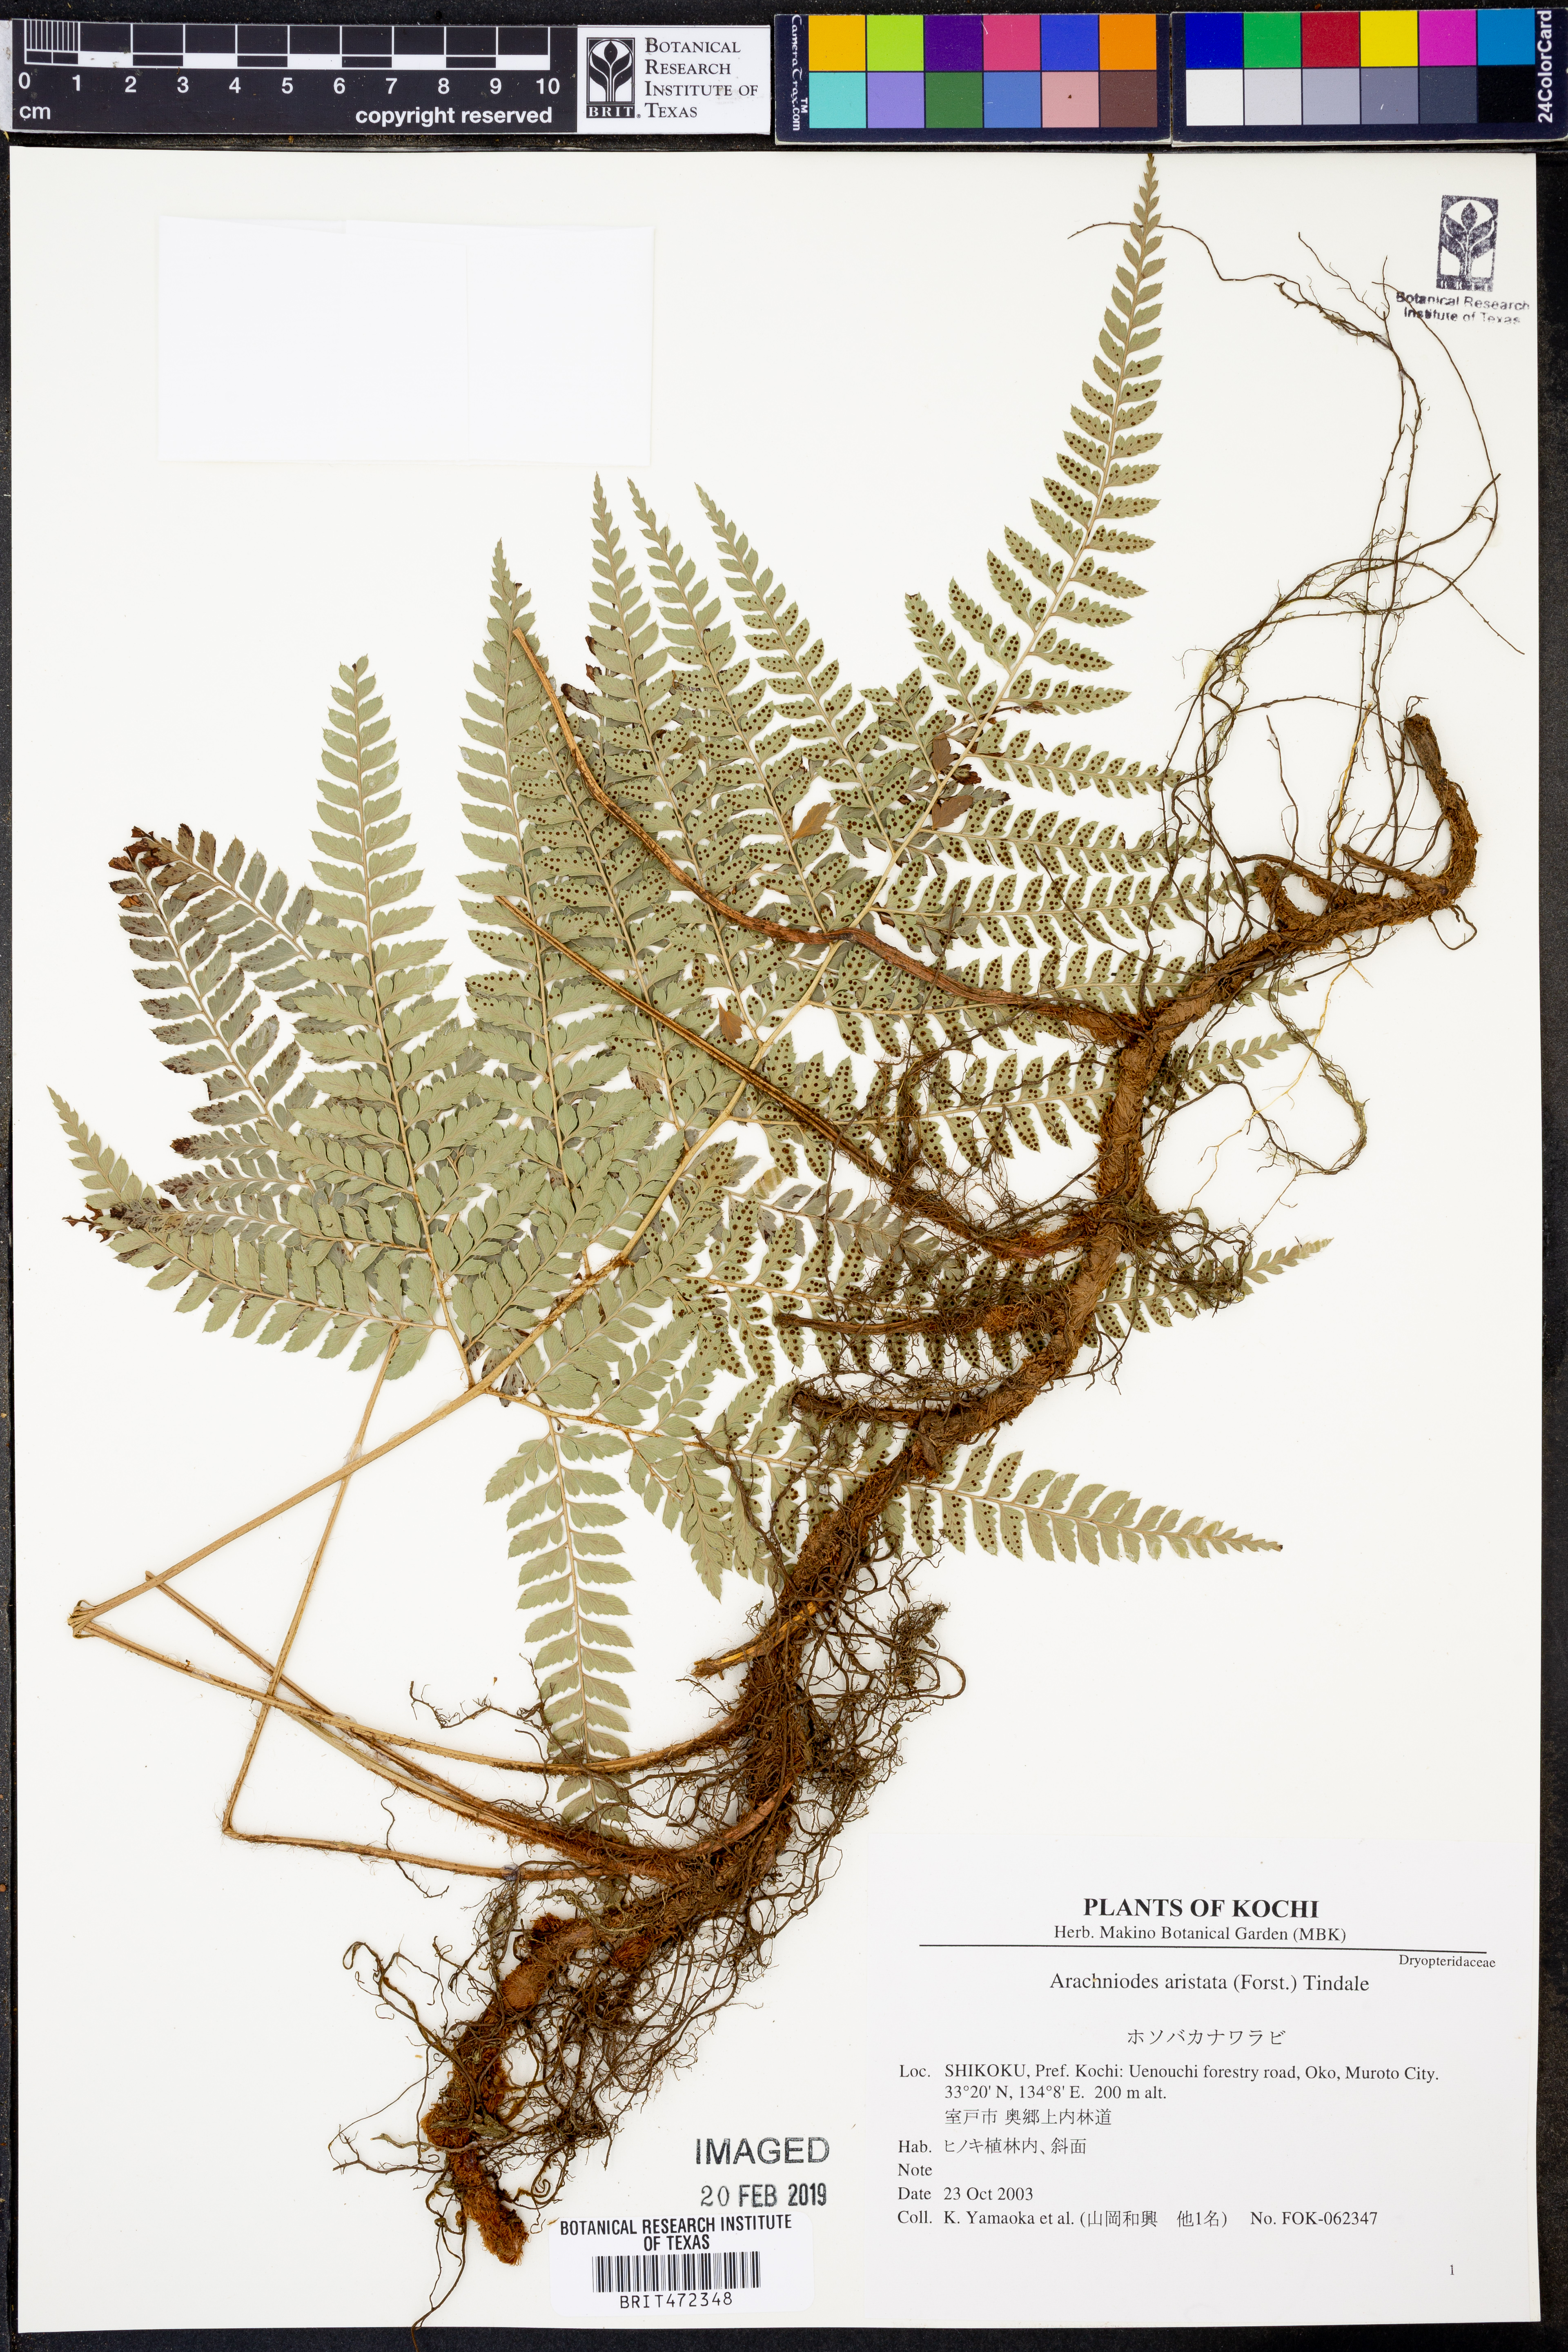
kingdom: Plantae
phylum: Tracheophyta
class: Polypodiopsida
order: Polypodiales
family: Dryopteridaceae
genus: Arachniodes
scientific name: Arachniodes aristata
